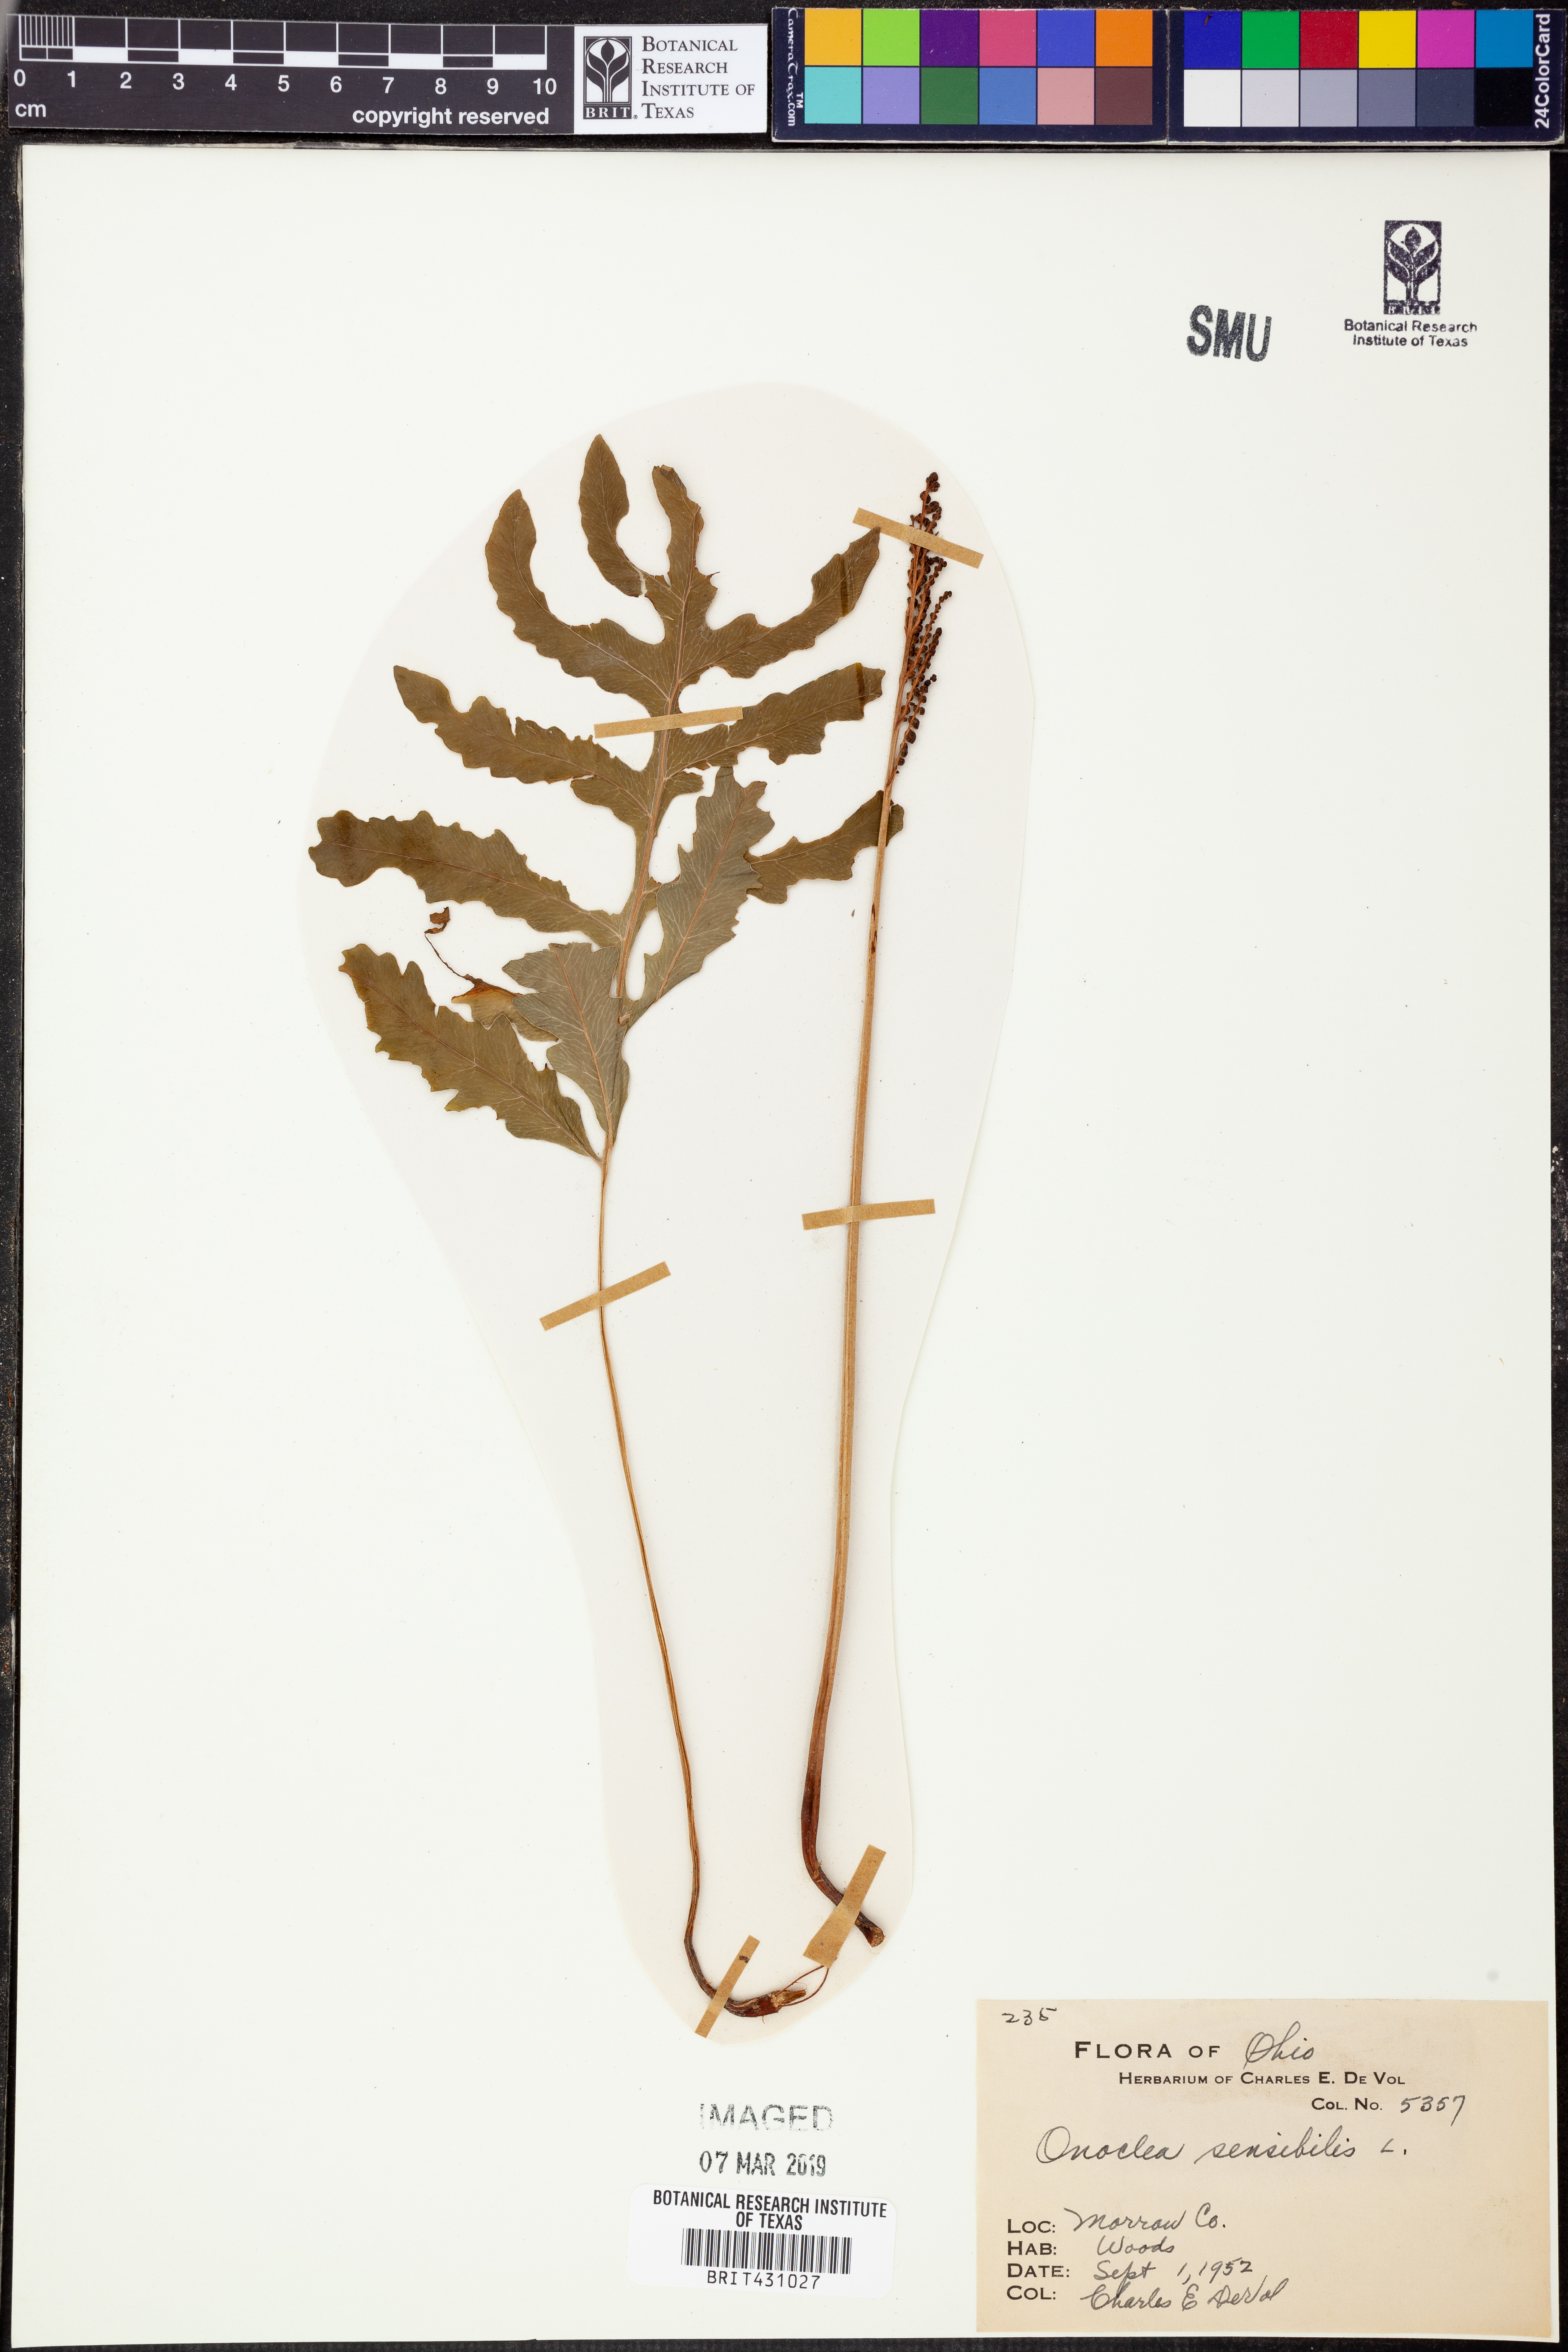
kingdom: Plantae
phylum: Tracheophyta
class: Polypodiopsida
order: Polypodiales
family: Onocleaceae
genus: Onoclea
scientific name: Onoclea sensibilis
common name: Sensitive fern
